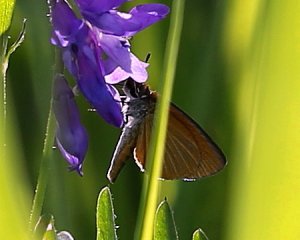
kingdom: Animalia
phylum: Arthropoda
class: Insecta
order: Lepidoptera
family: Hesperiidae
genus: Ancyloxypha
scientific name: Ancyloxypha numitor
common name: Least Skipper
